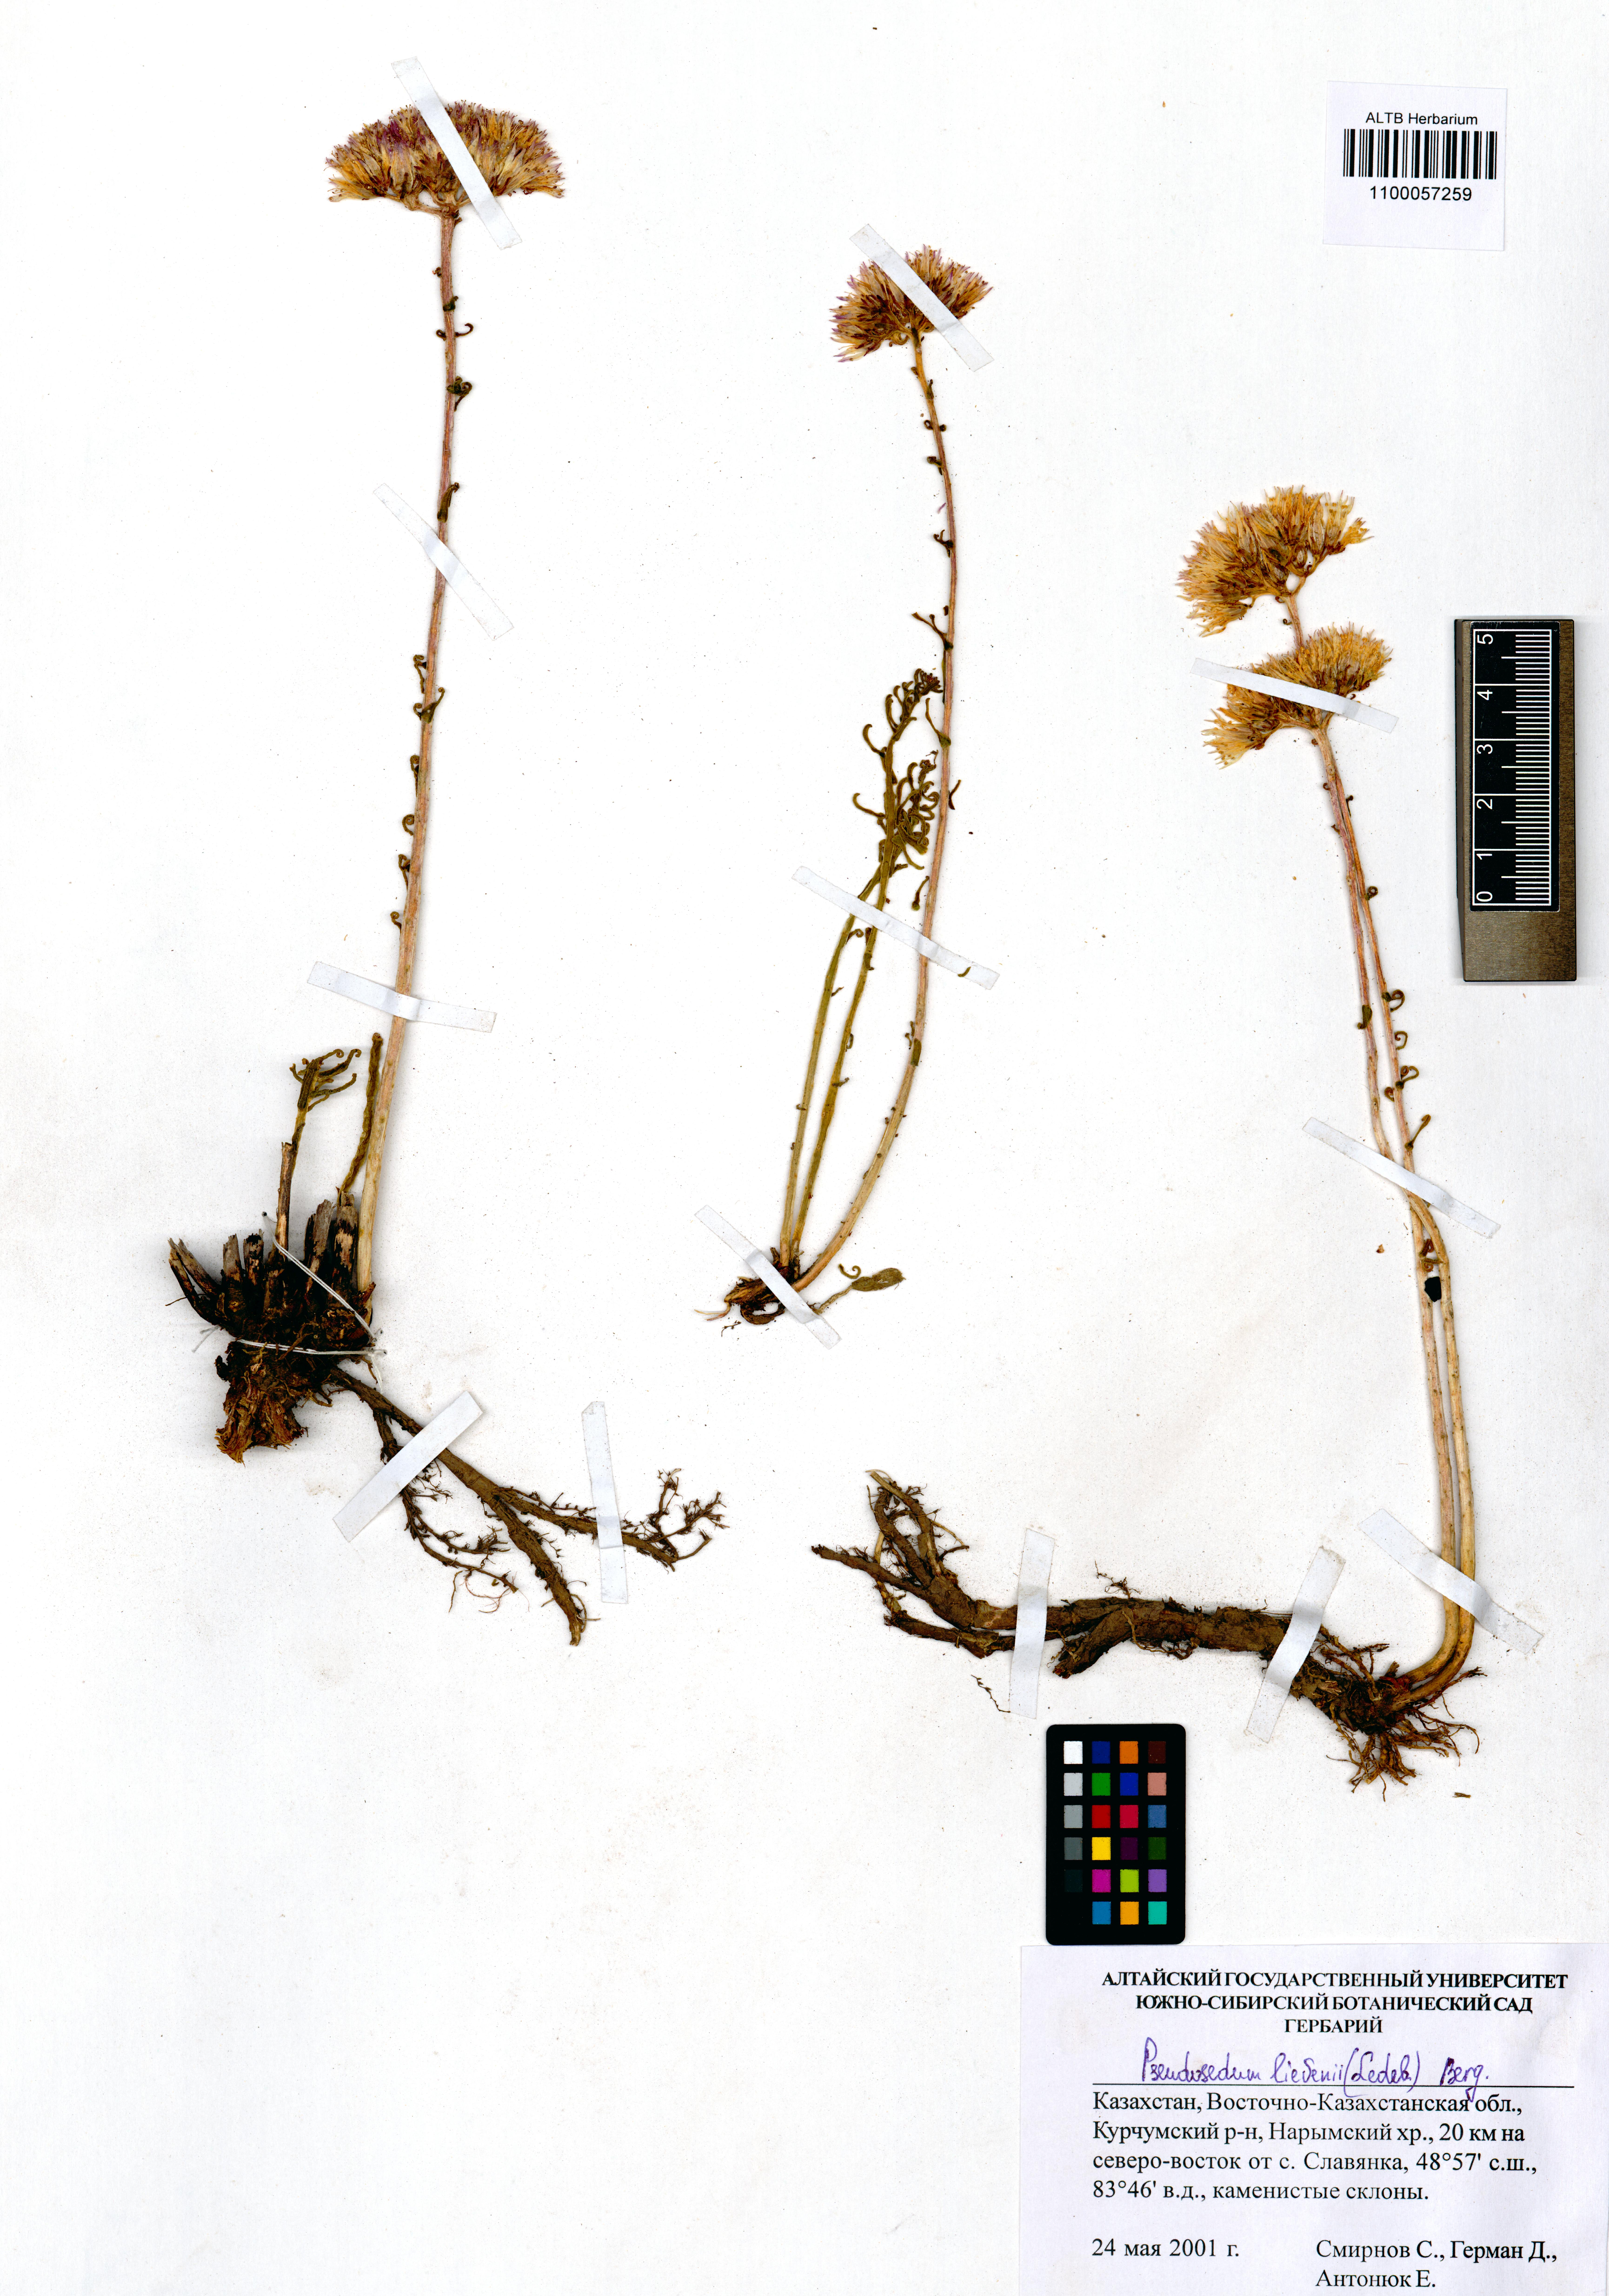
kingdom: Plantae
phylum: Tracheophyta
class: Magnoliopsida
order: Saxifragales
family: Crassulaceae
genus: Pseudosedum
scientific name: Pseudosedum lievenii
